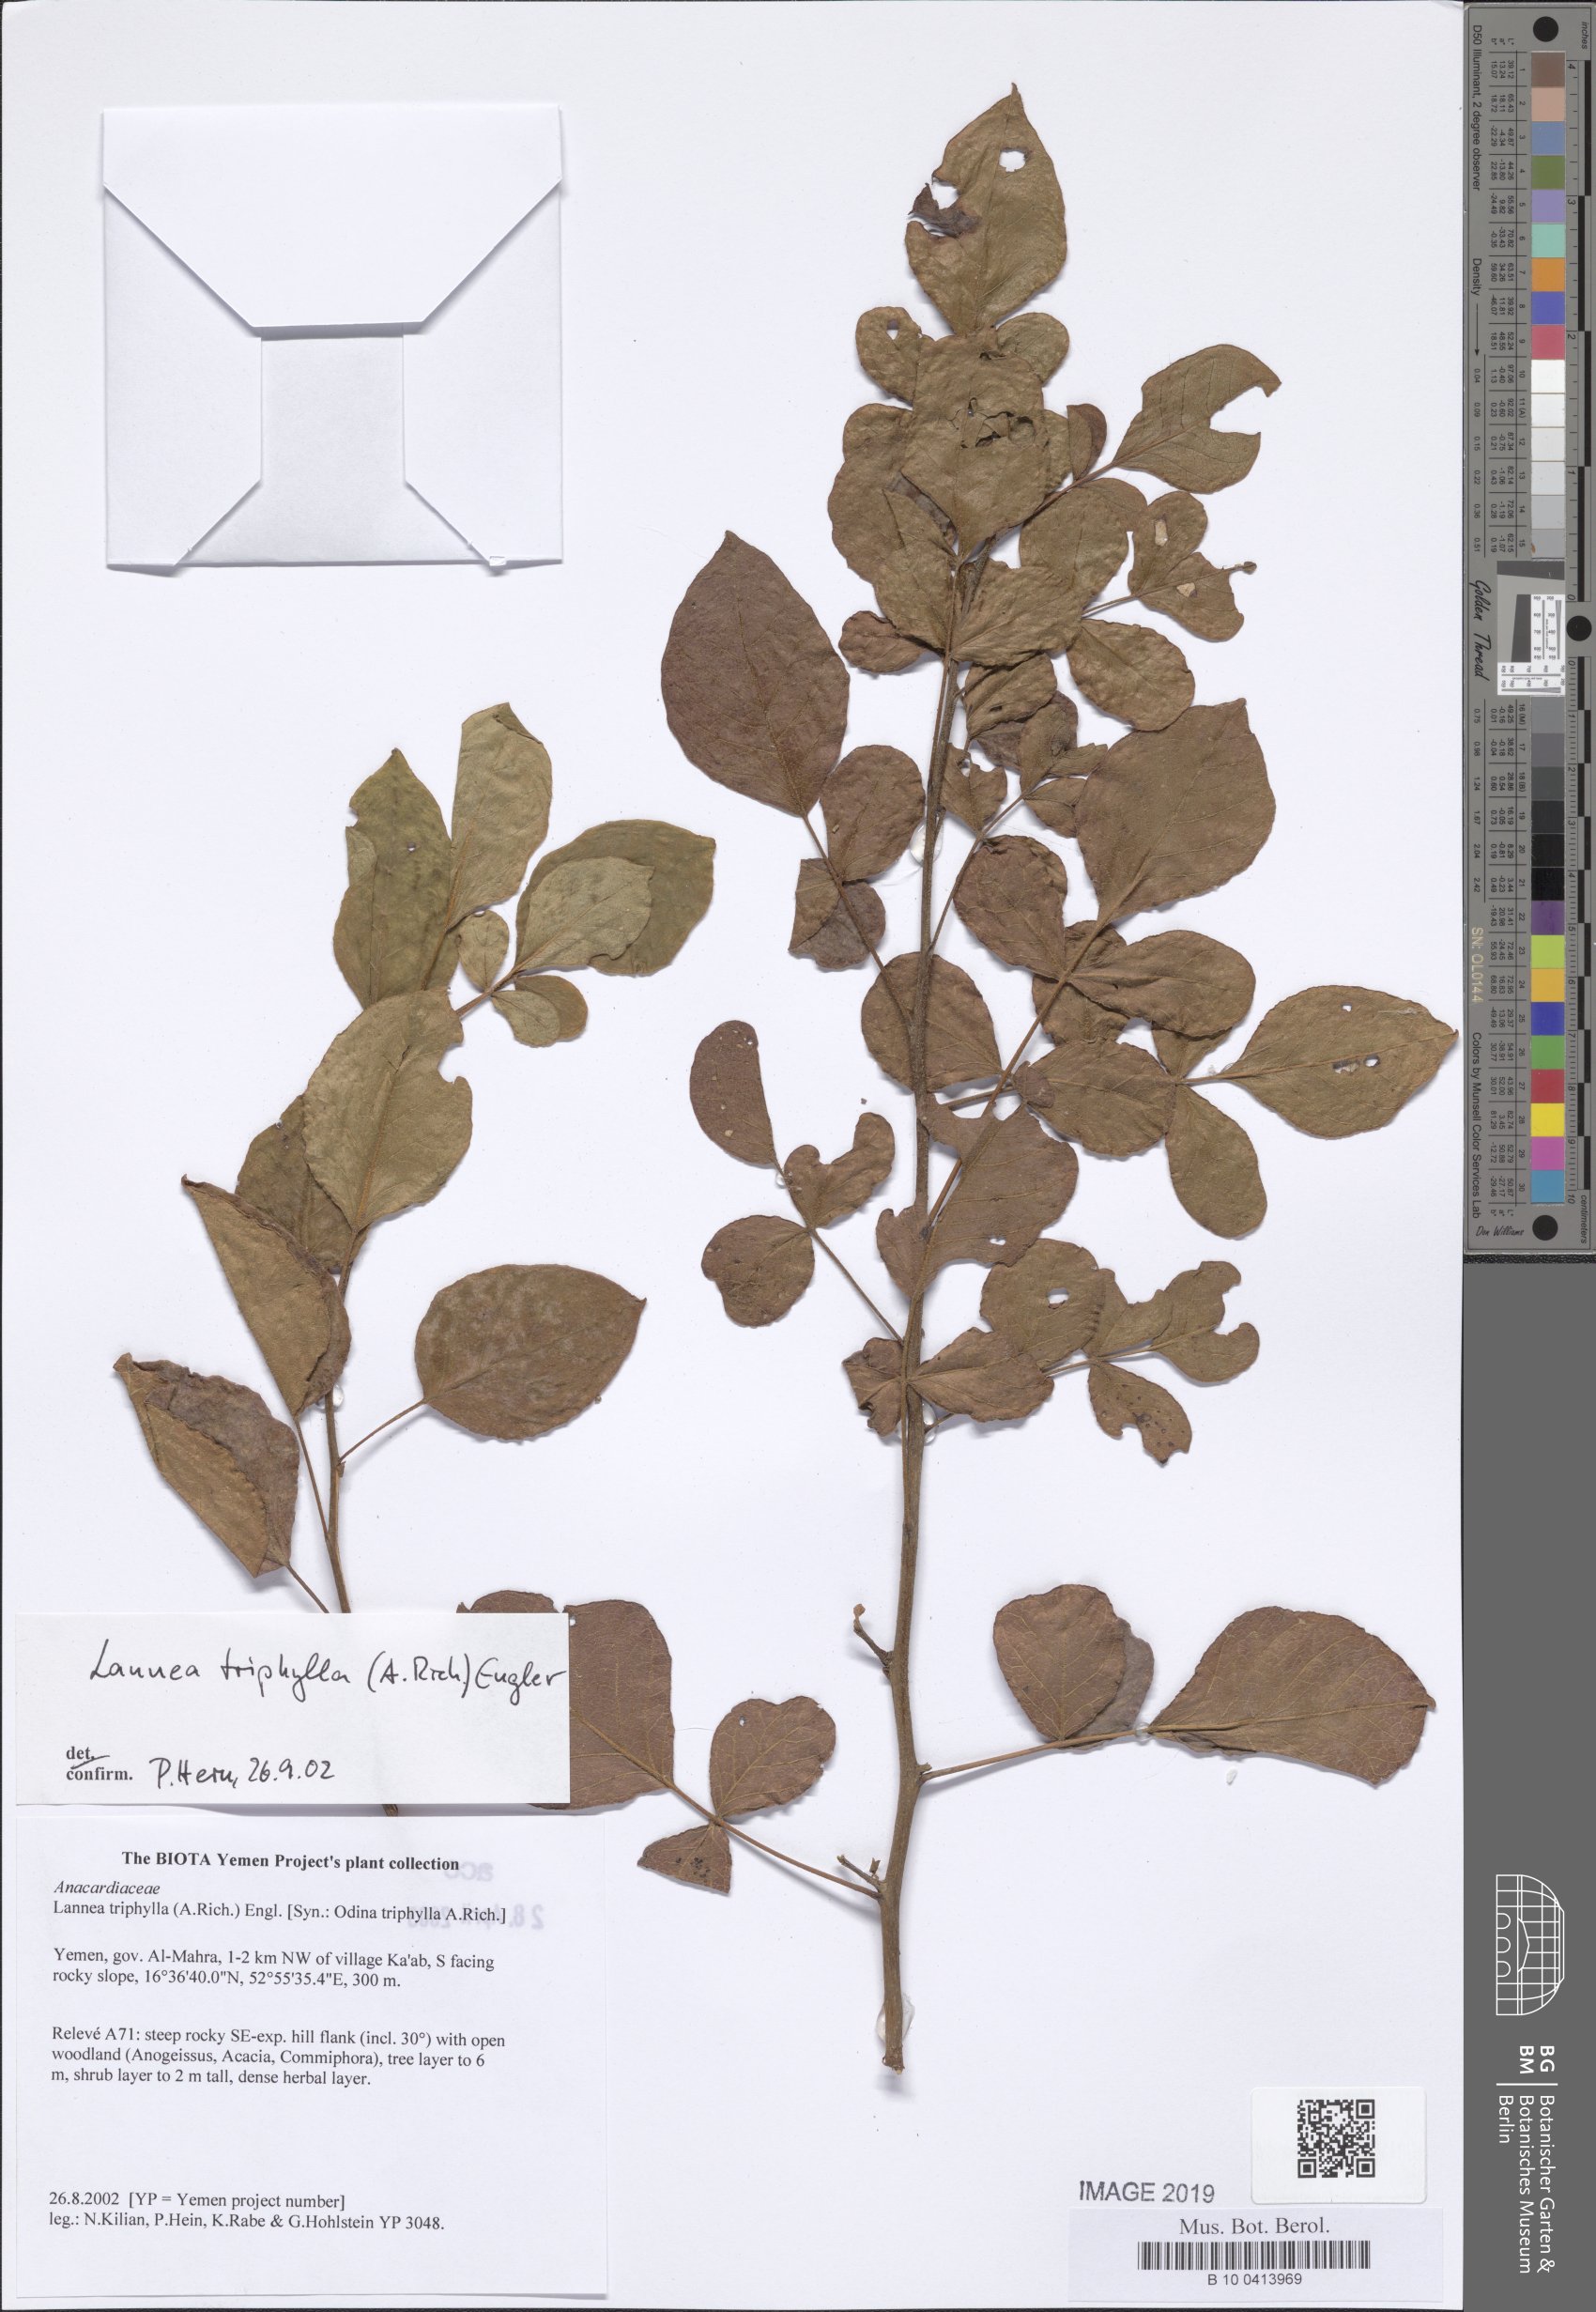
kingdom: Plantae
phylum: Tracheophyta
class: Magnoliopsida
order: Sapindales
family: Anacardiaceae
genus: Lannea
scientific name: Lannea triphylla
